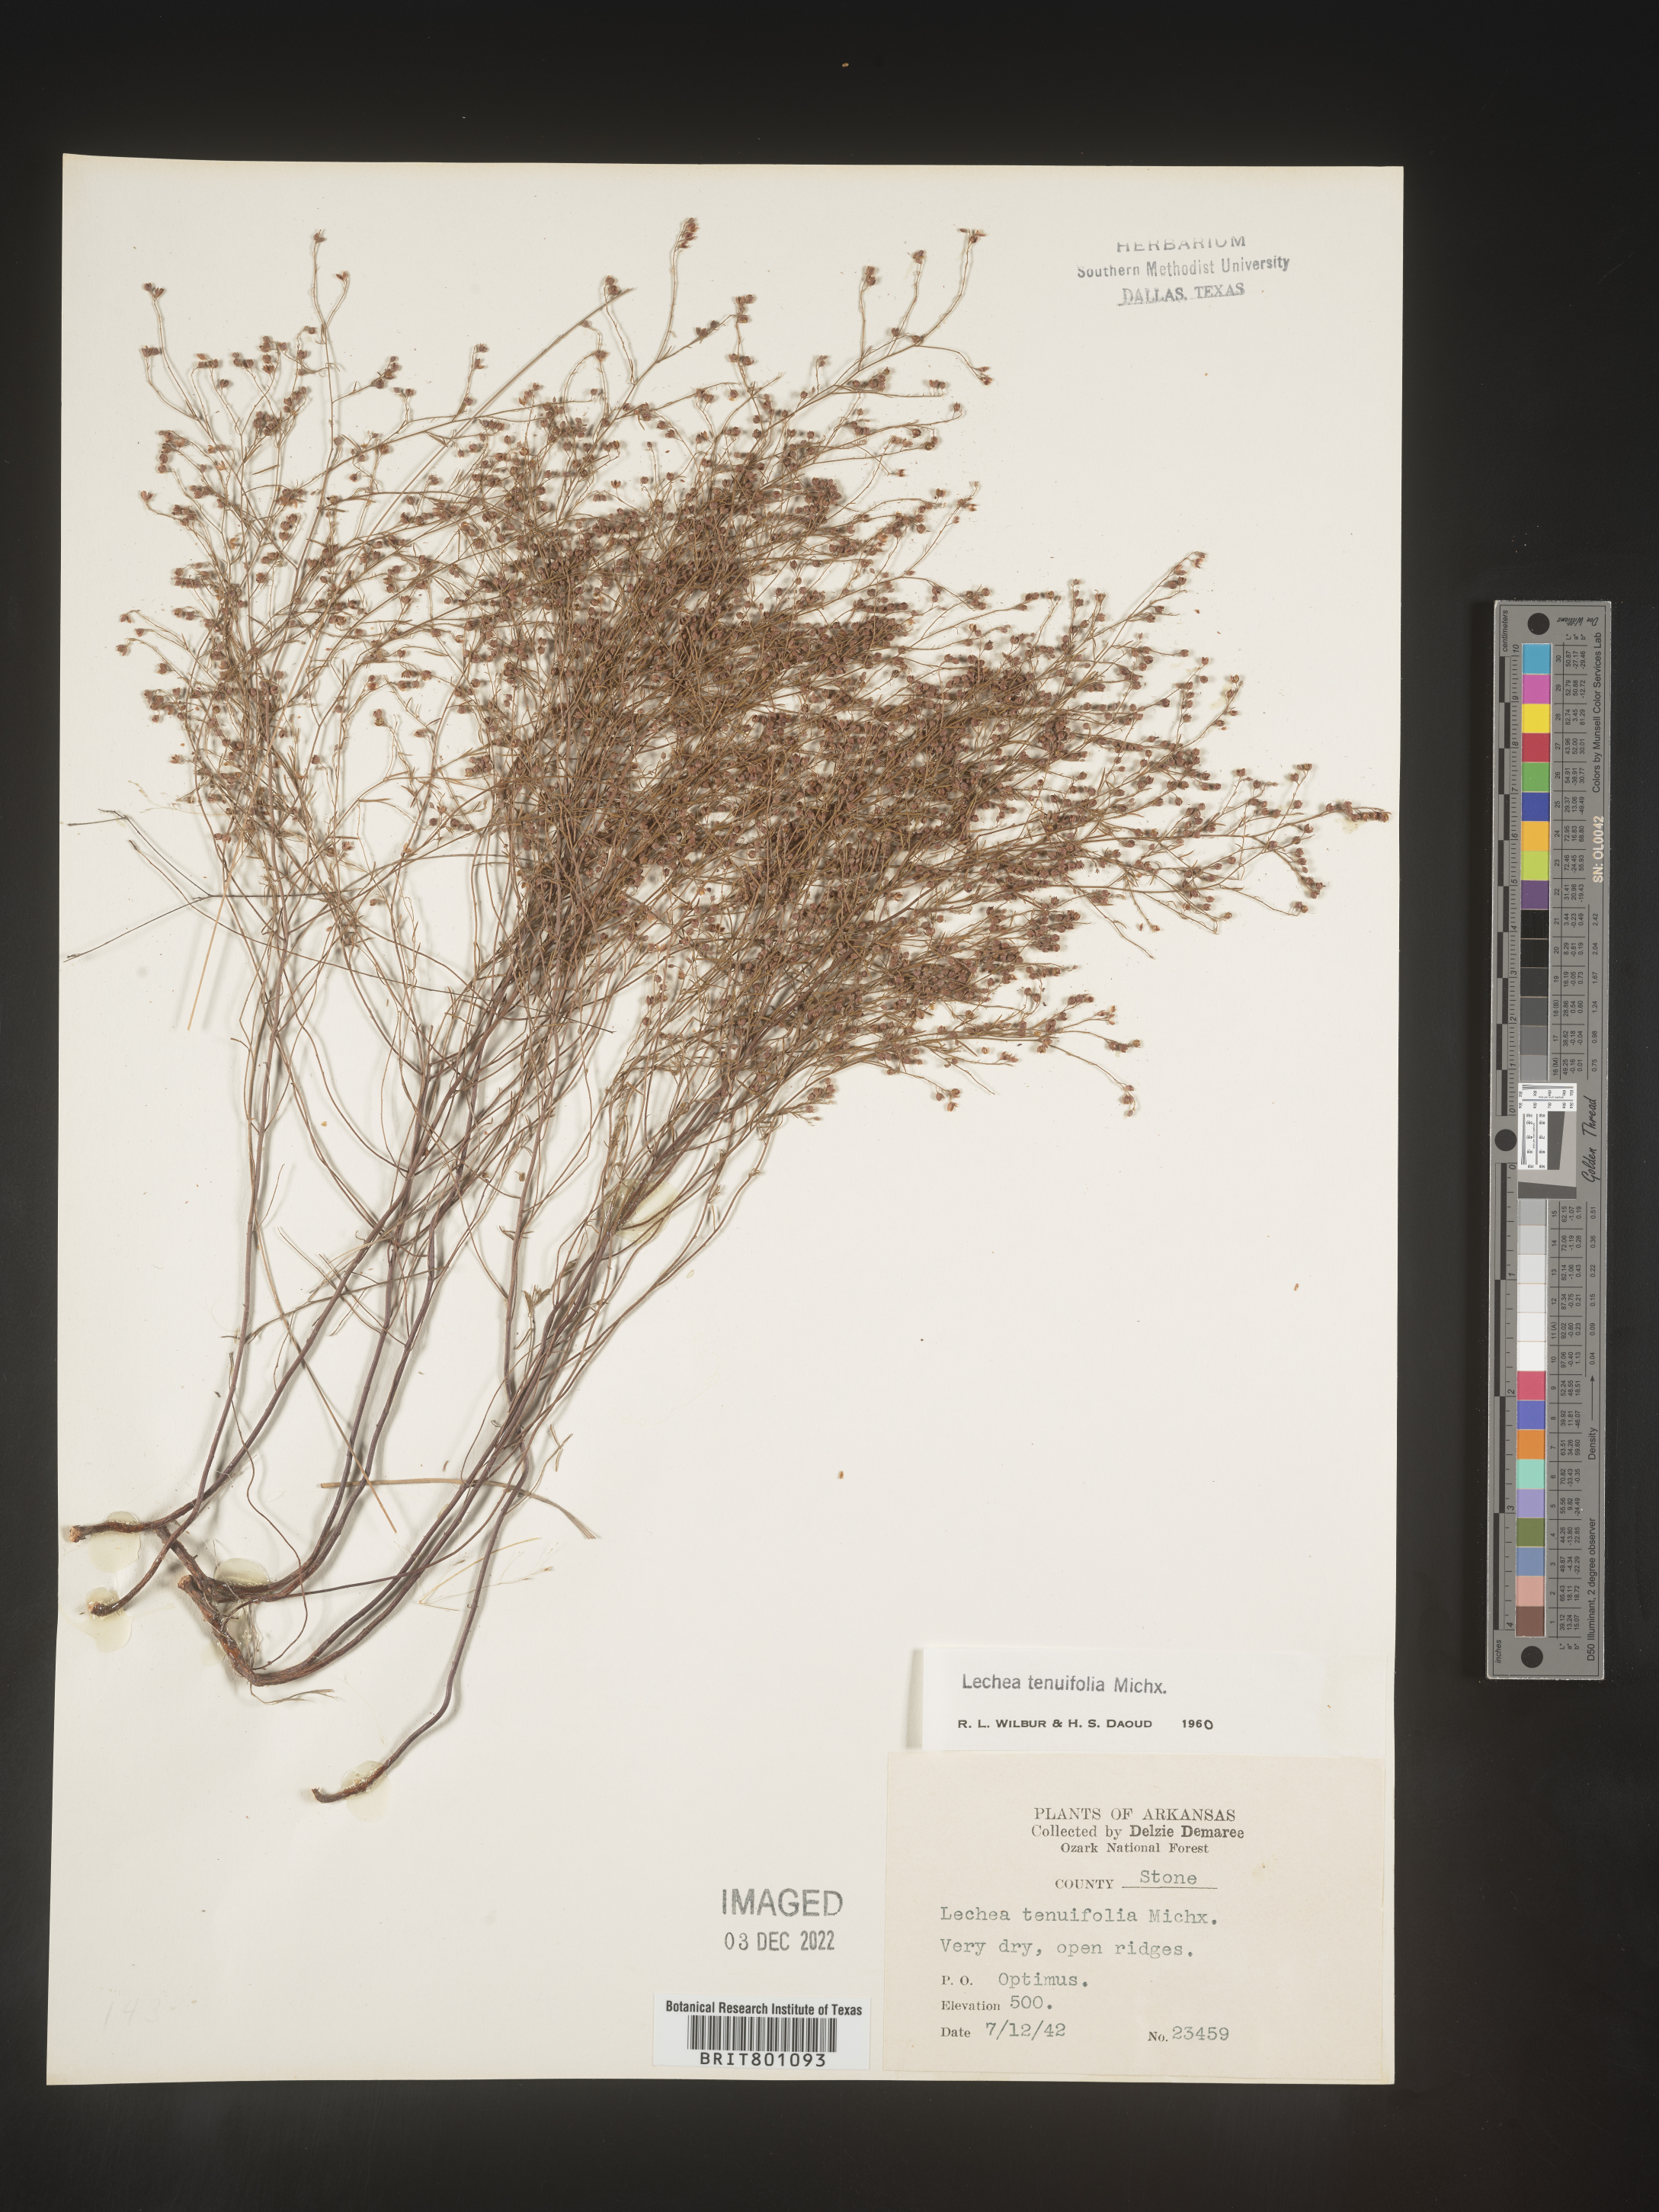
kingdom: Plantae
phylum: Tracheophyta
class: Magnoliopsida
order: Malvales
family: Cistaceae
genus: Lechea
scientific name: Lechea tenuifolia
